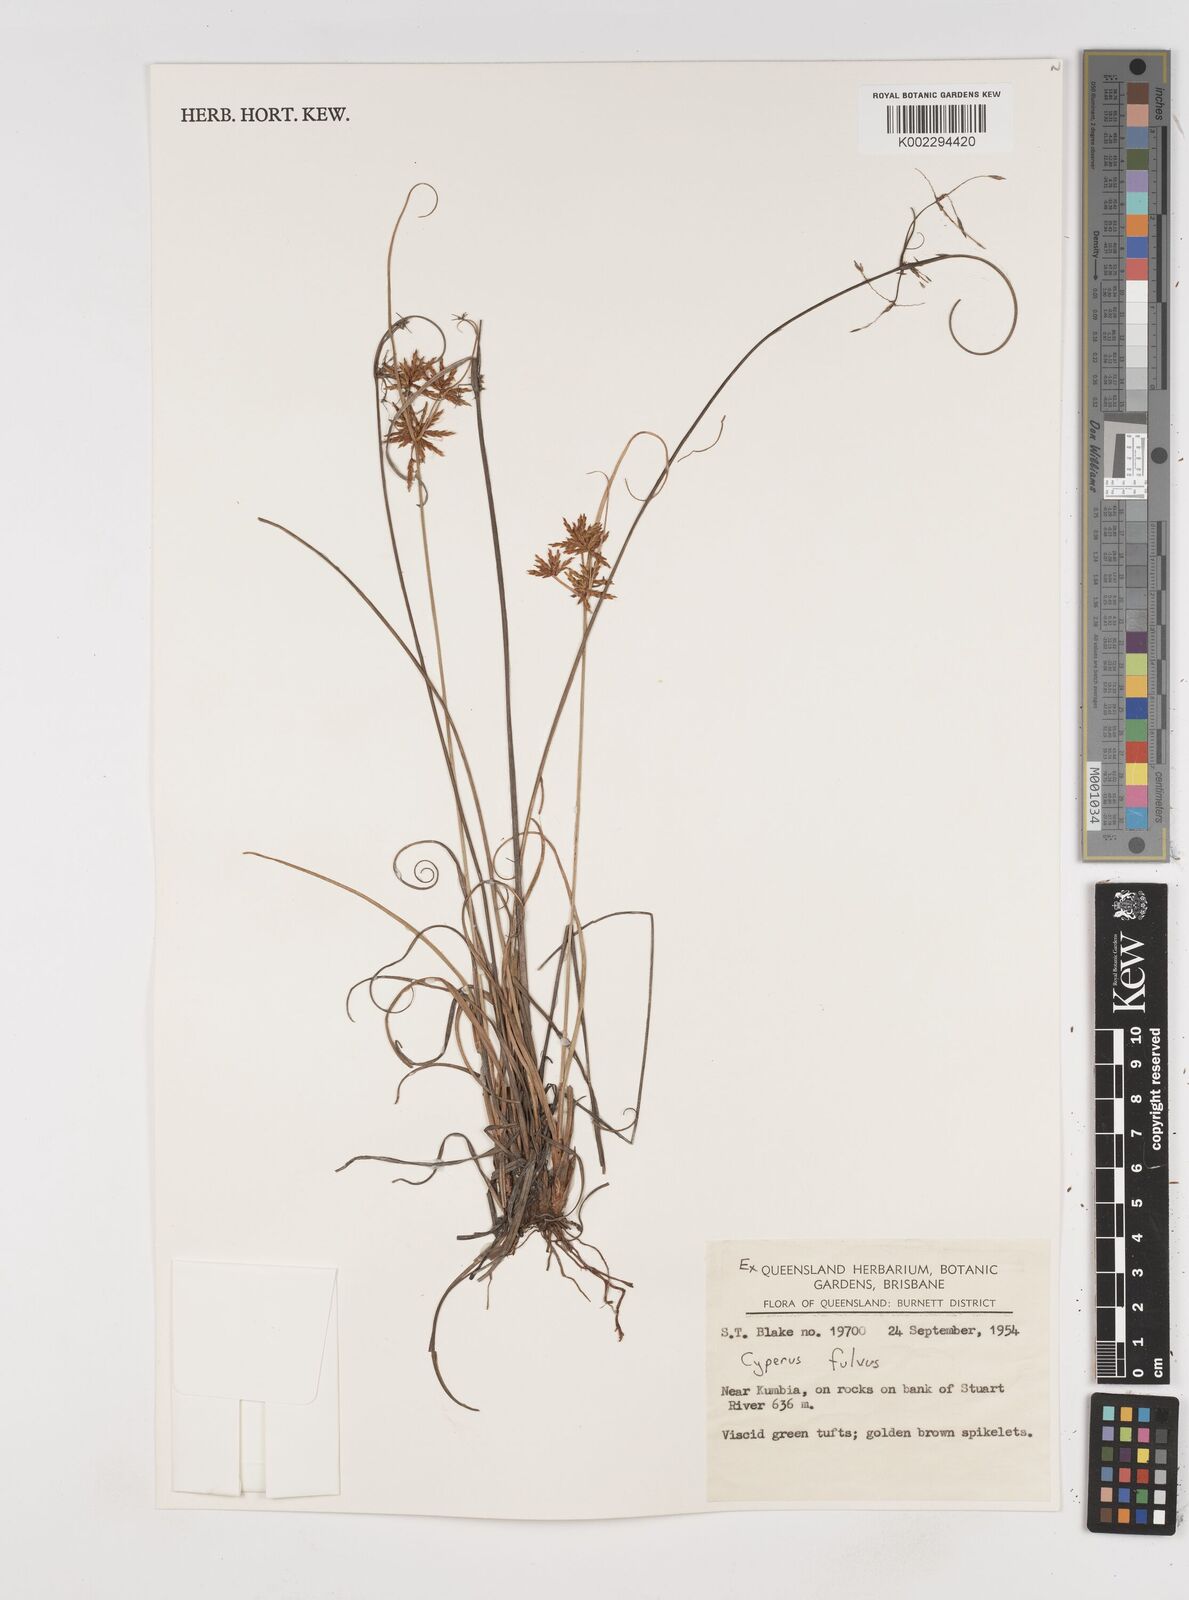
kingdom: Plantae
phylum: Tracheophyta
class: Liliopsida
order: Poales
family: Cyperaceae
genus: Cyperus
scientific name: Cyperus fulvus
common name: Sticky sedge
